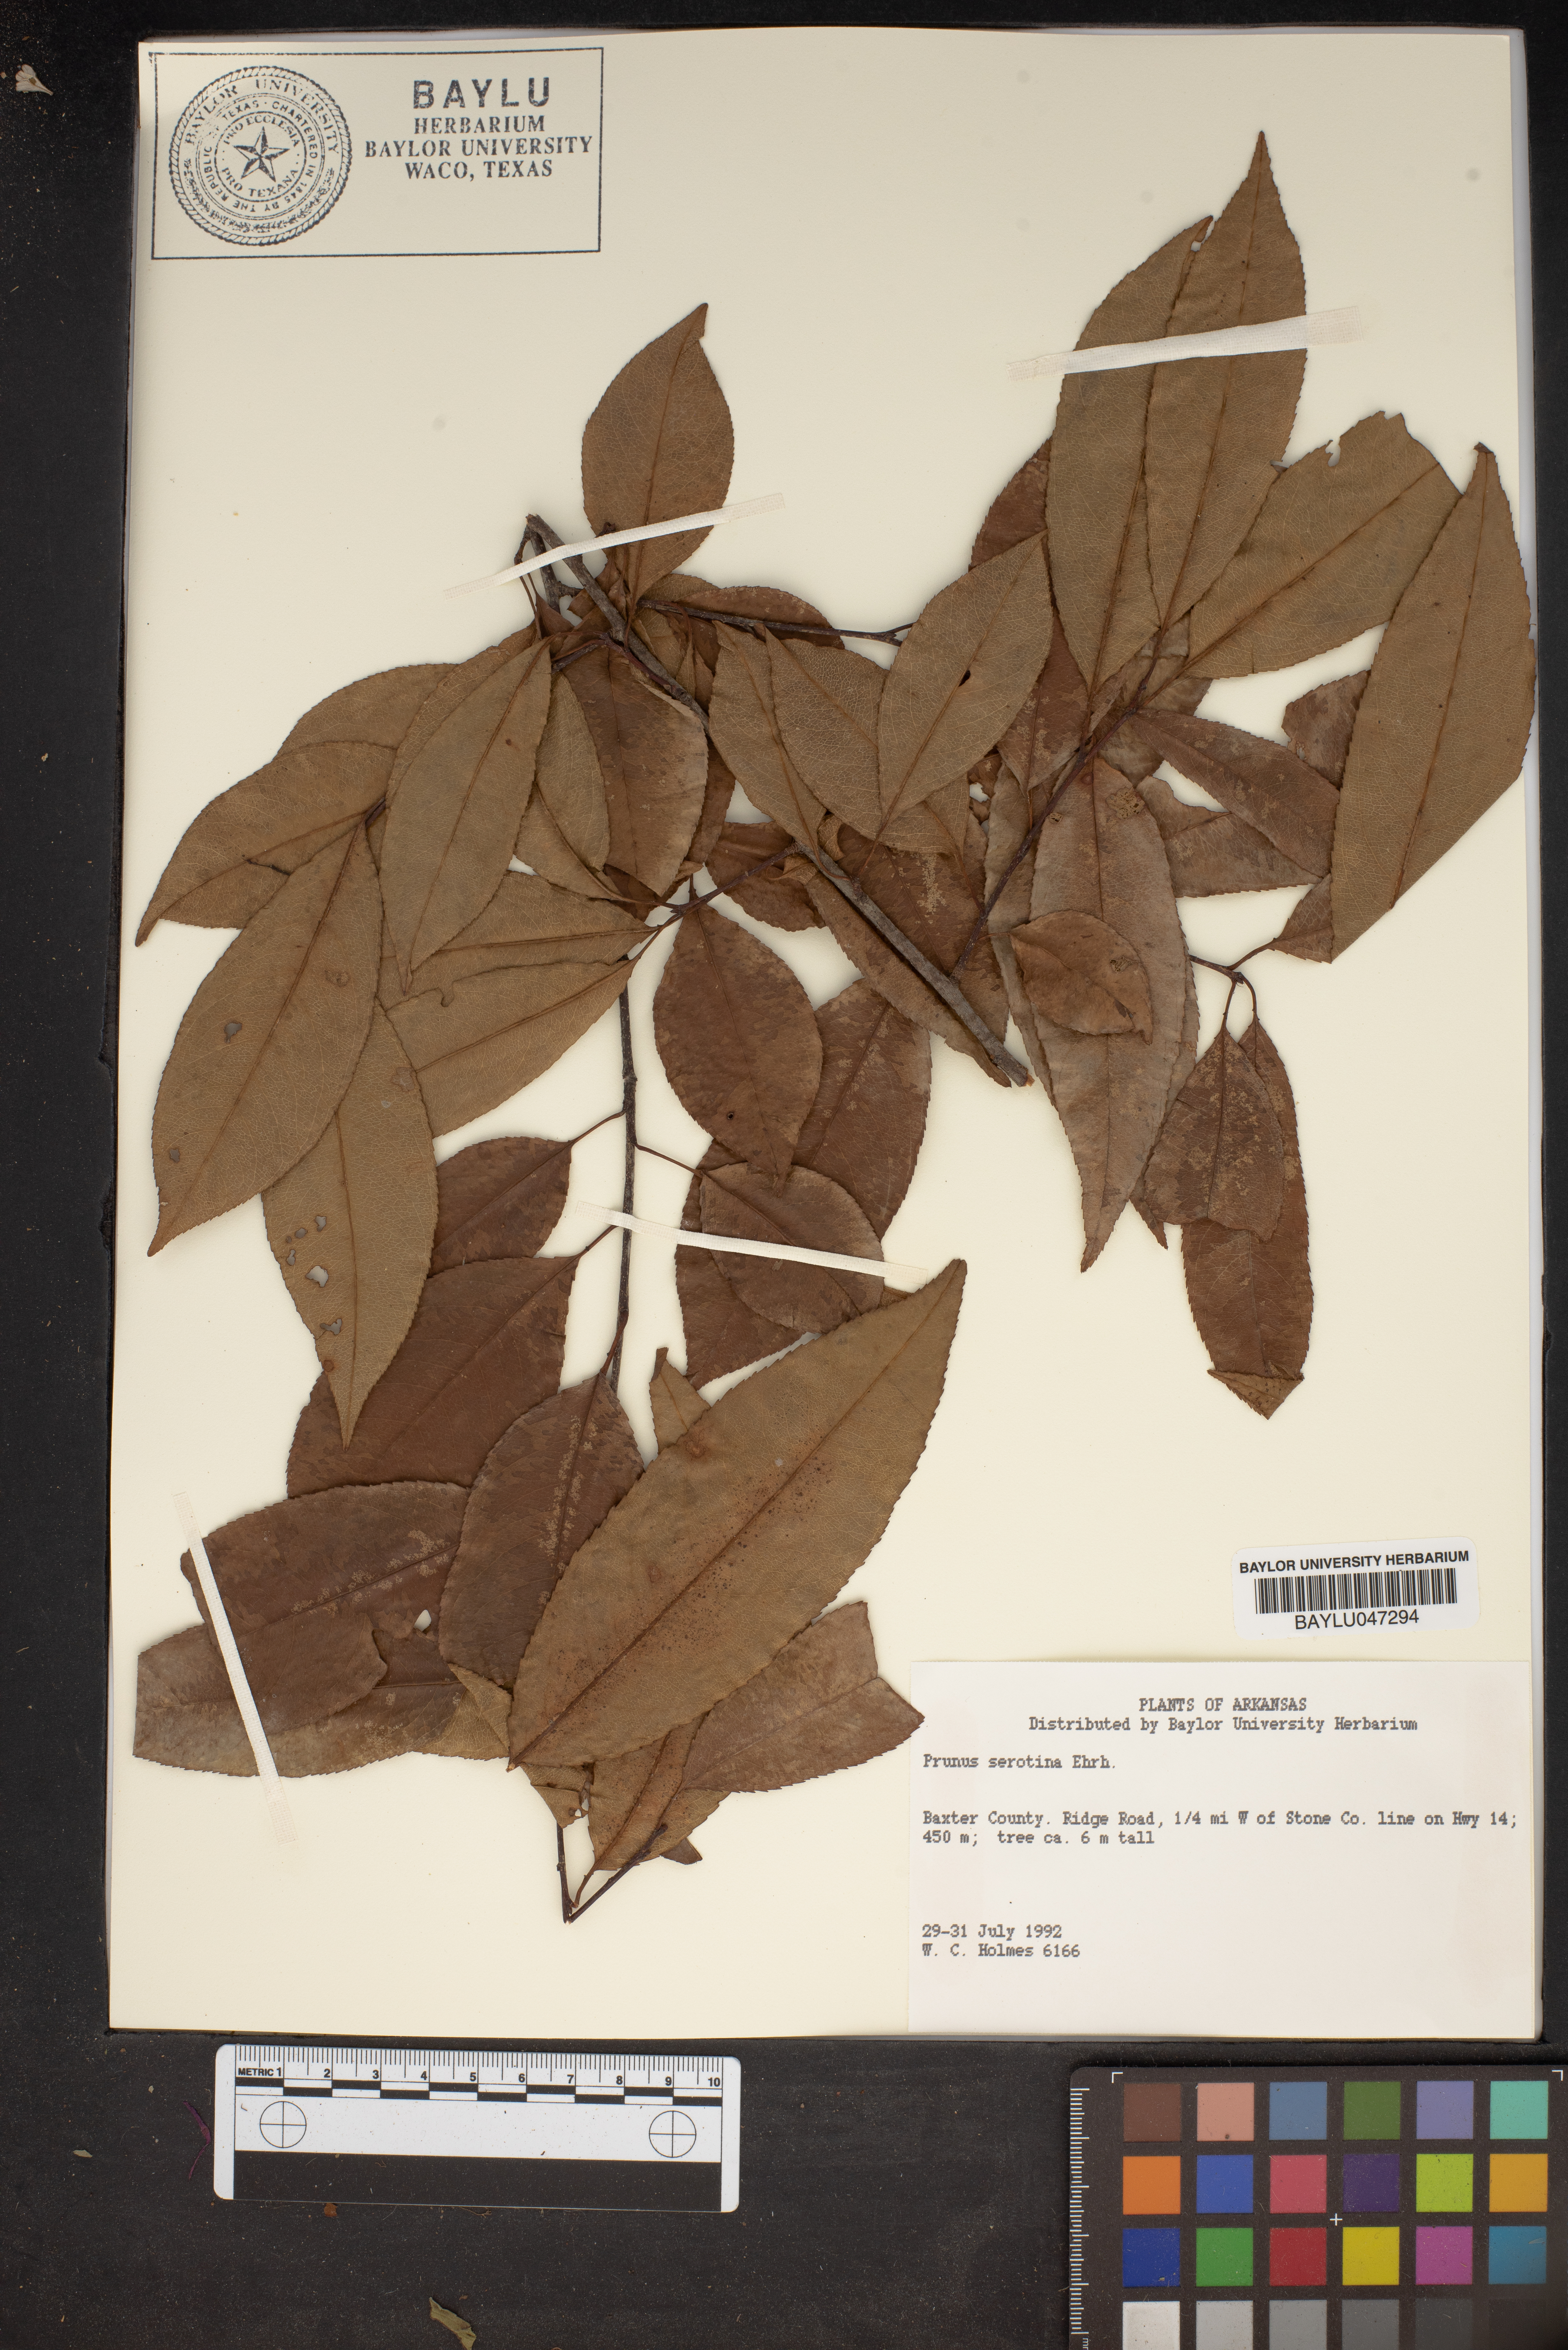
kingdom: Plantae
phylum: Tracheophyta
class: Magnoliopsida
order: Rosales
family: Rosaceae
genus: Prunus
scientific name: Prunus serotina
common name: Black cherry
